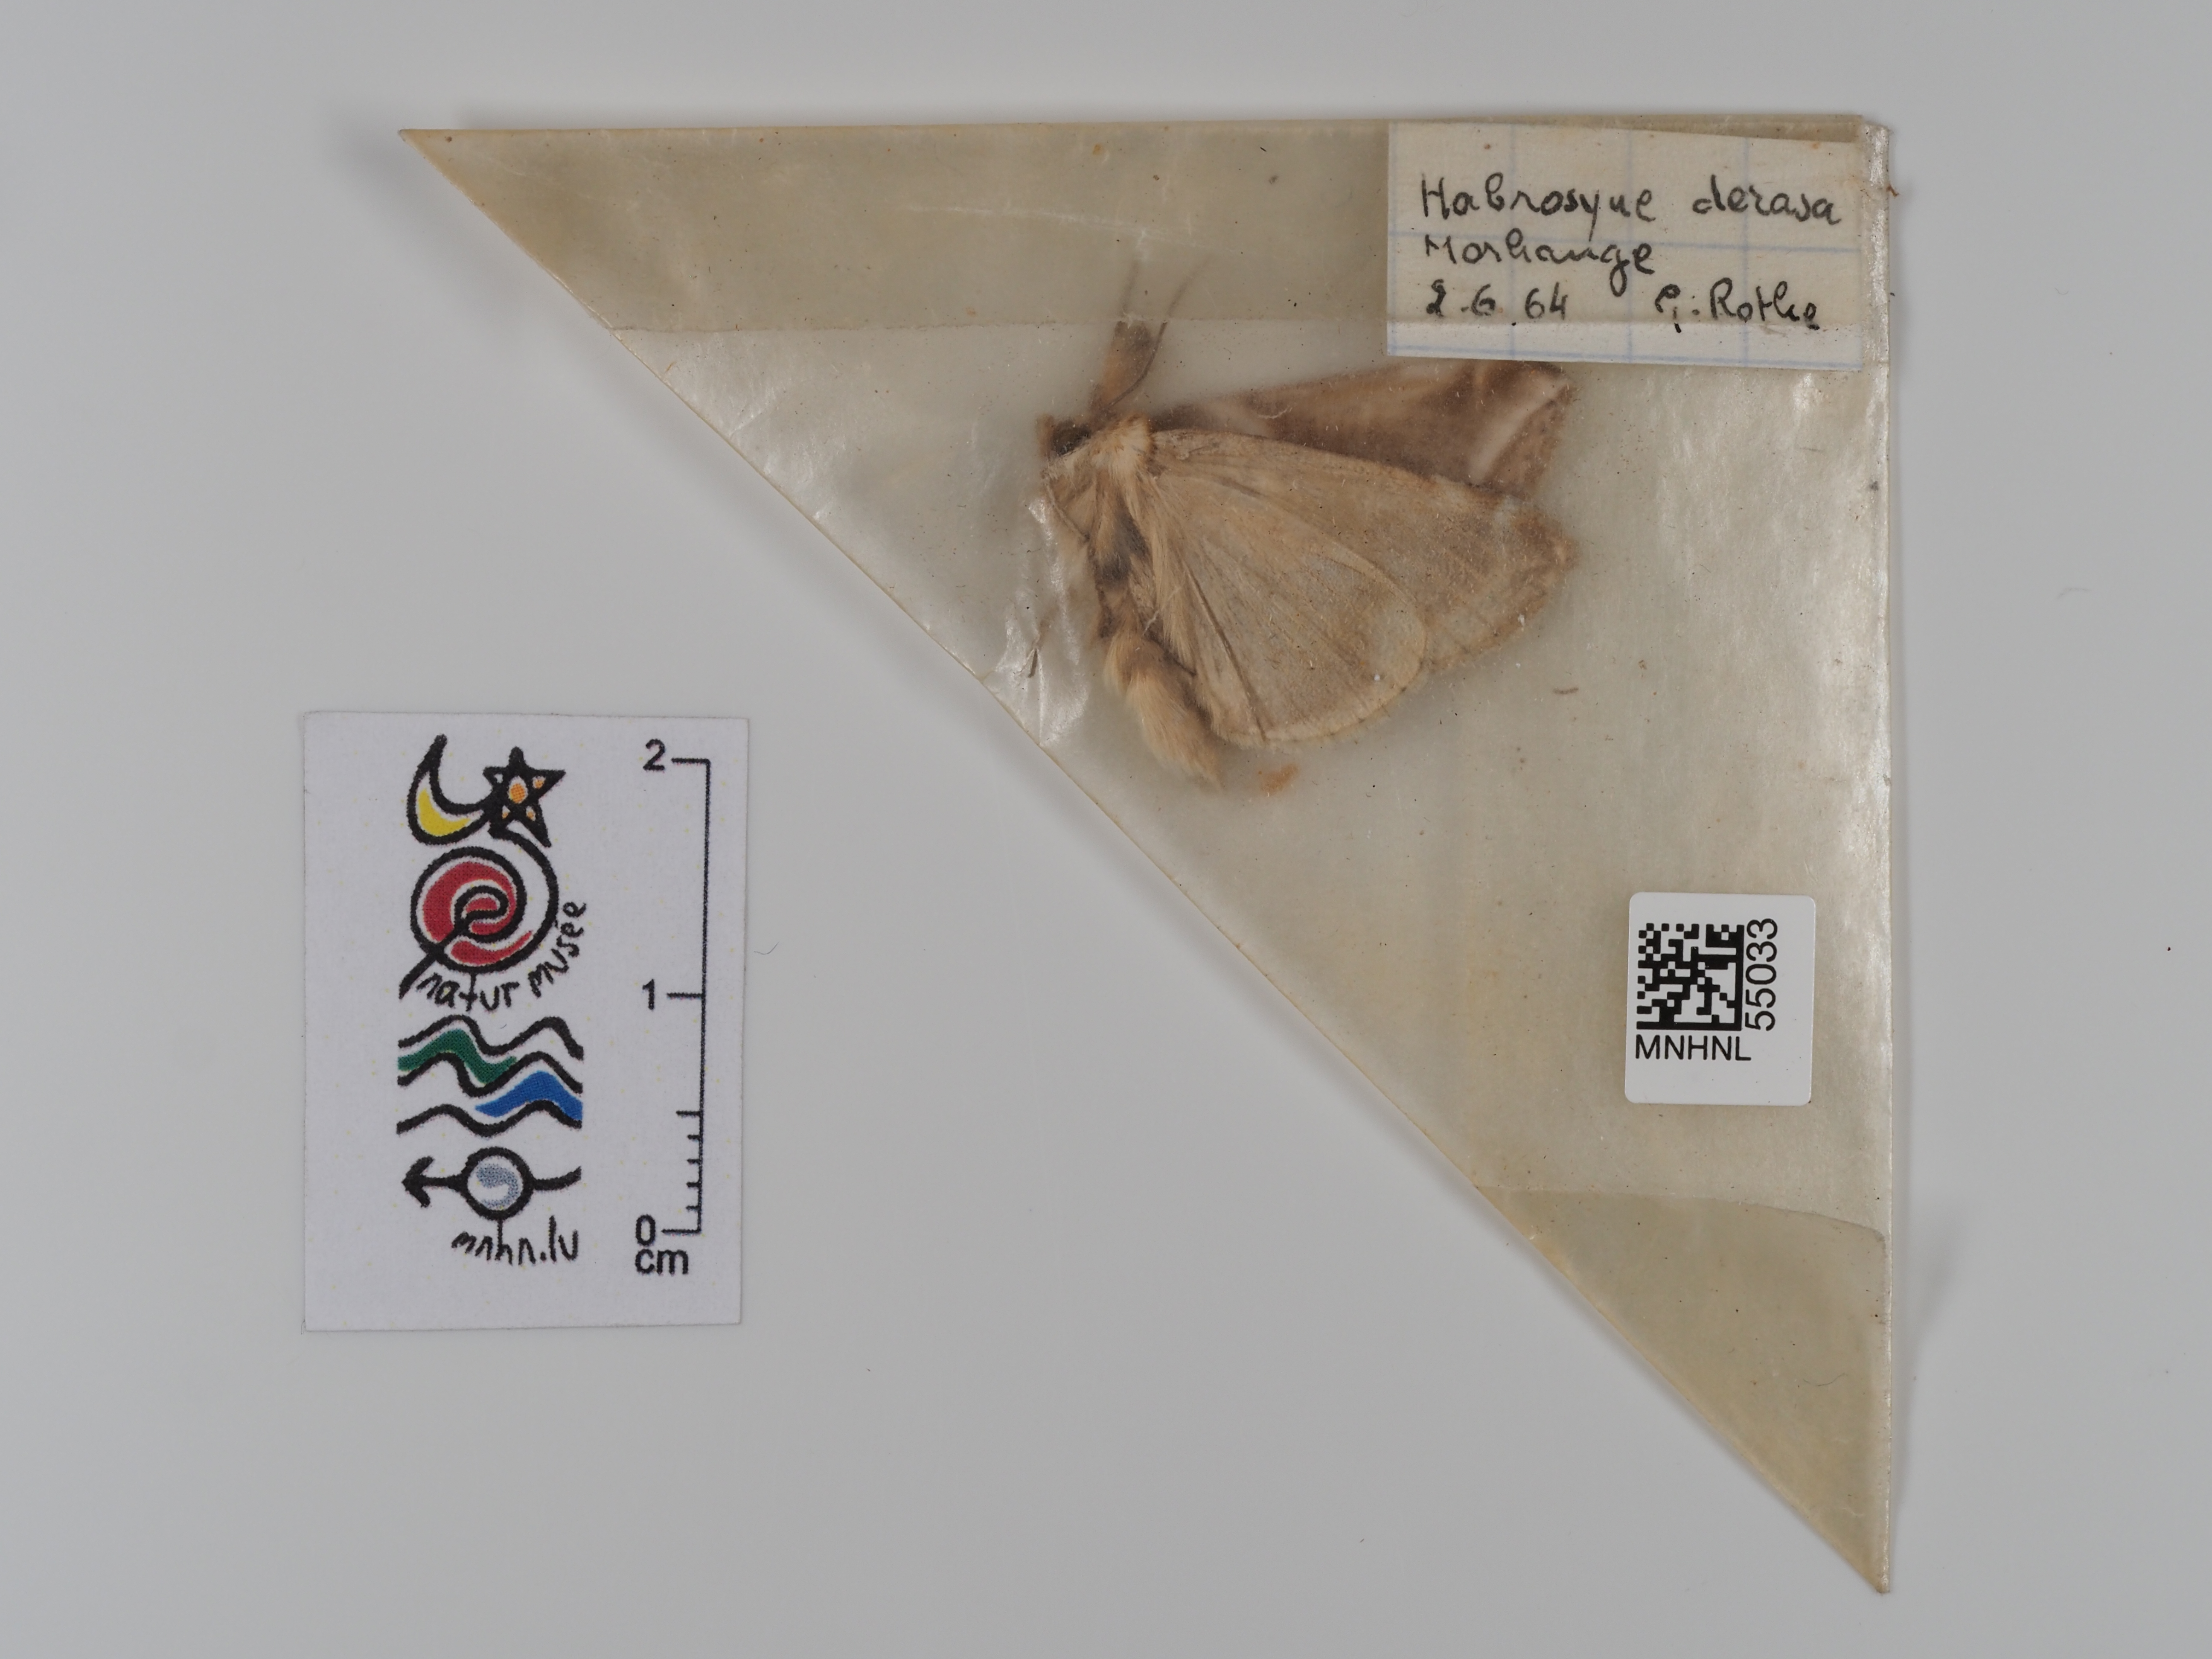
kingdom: Animalia
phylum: Arthropoda
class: Insecta
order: Lepidoptera
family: Drepanidae
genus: Habrosyne
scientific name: Habrosyne pyritoides
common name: Buff arches
